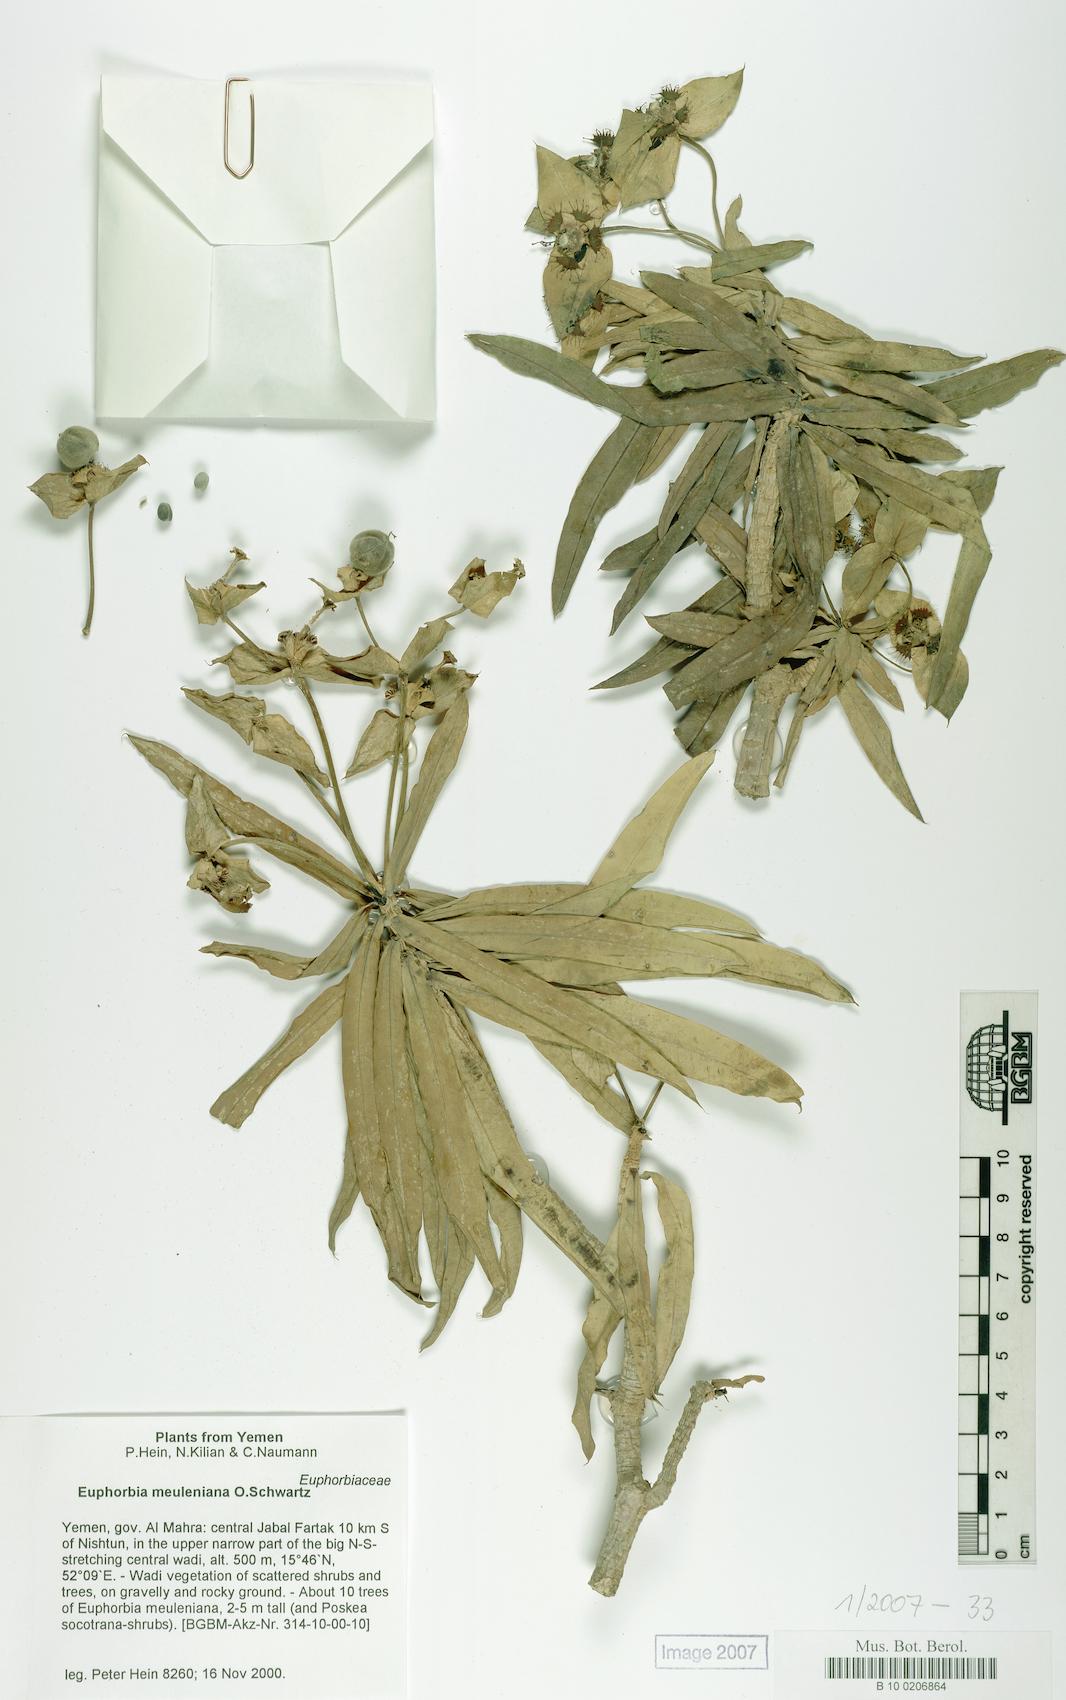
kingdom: Plantae
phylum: Tracheophyta
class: Magnoliopsida
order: Malpighiales
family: Euphorbiaceae
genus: Euphorbia
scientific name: Euphorbia meuleniana
